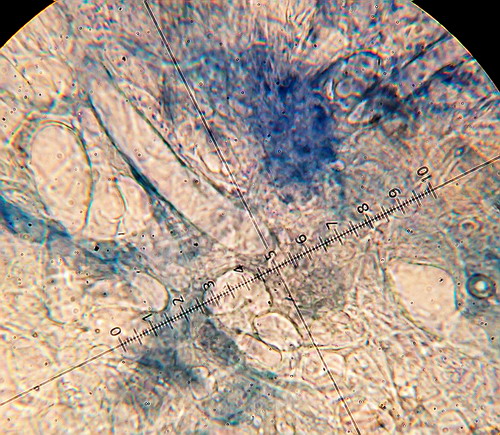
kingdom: Fungi
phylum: Basidiomycota
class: Agaricomycetes
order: Agaricales
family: Pluteaceae
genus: Pluteus
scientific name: Pluteus phlebophorus
